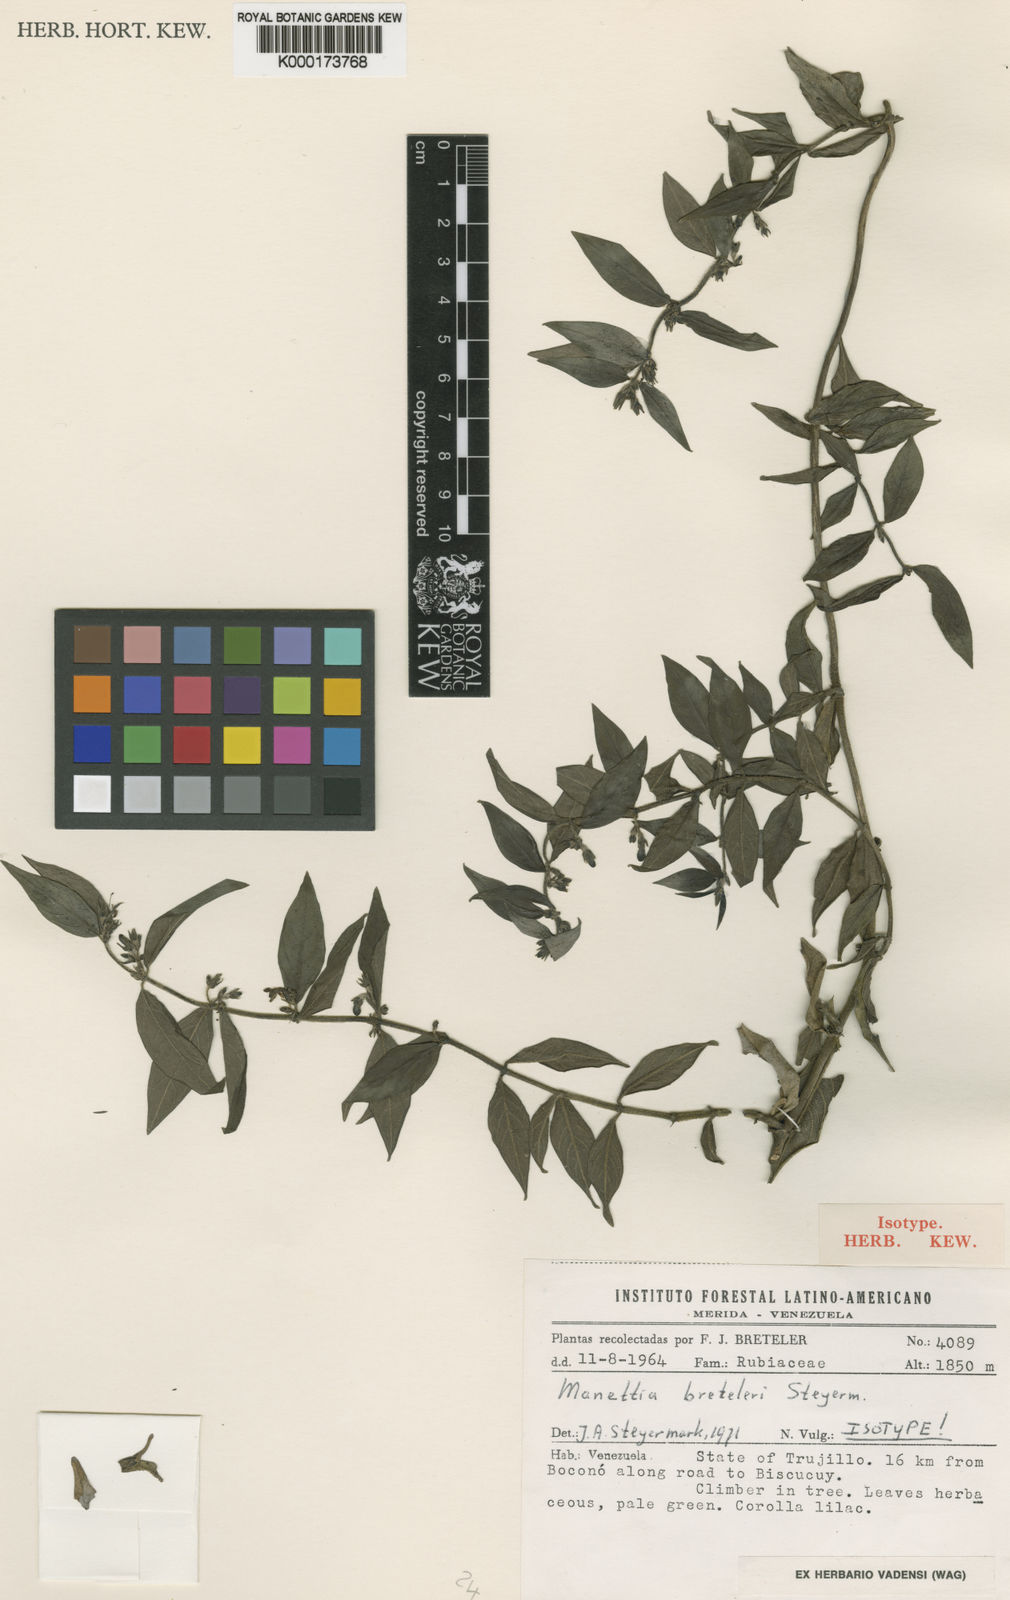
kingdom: Plantae
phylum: Tracheophyta
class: Magnoliopsida
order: Gentianales
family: Rubiaceae
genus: Manettia
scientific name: Manettia breteleri
